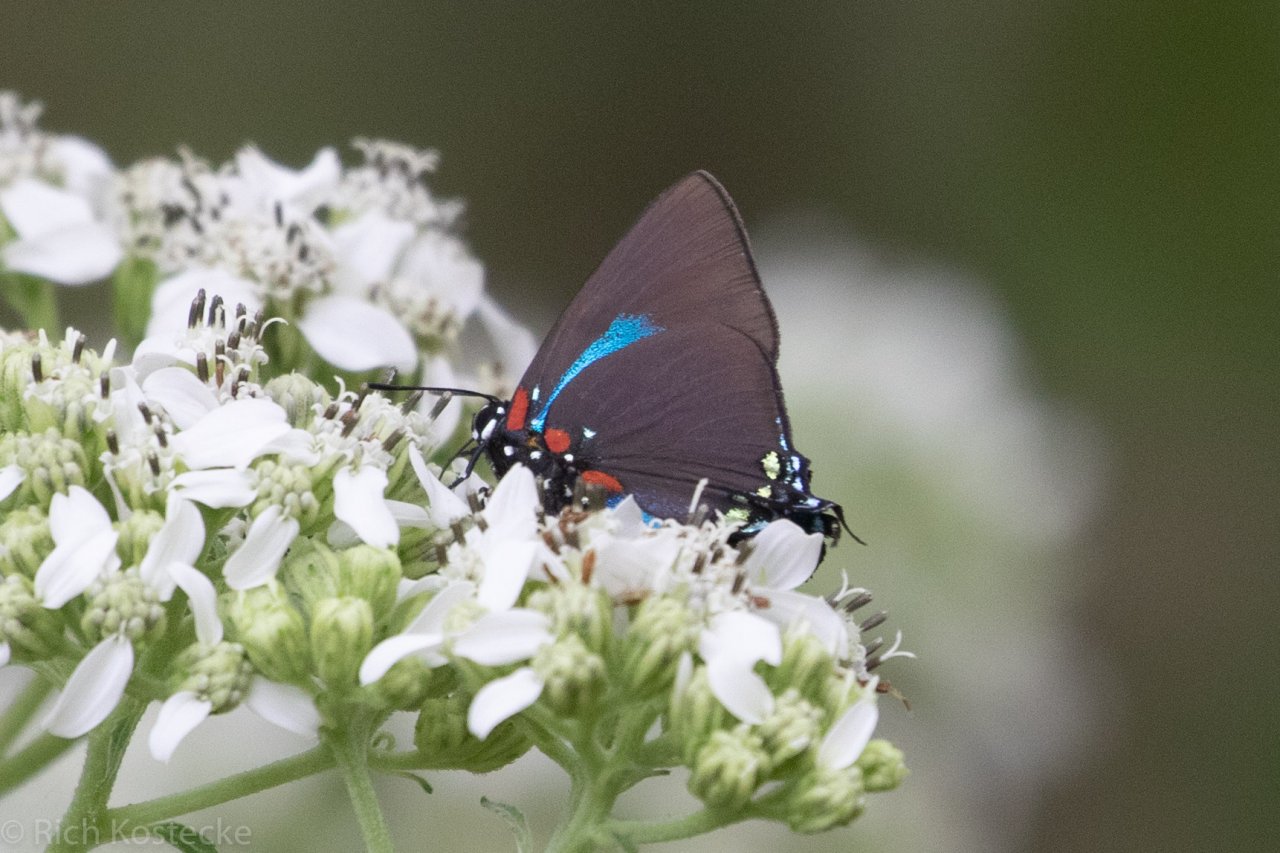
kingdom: Animalia
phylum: Arthropoda
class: Insecta
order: Lepidoptera
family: Lycaenidae
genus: Atlides
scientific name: Atlides halesus
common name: Great Purple Hairstreak
